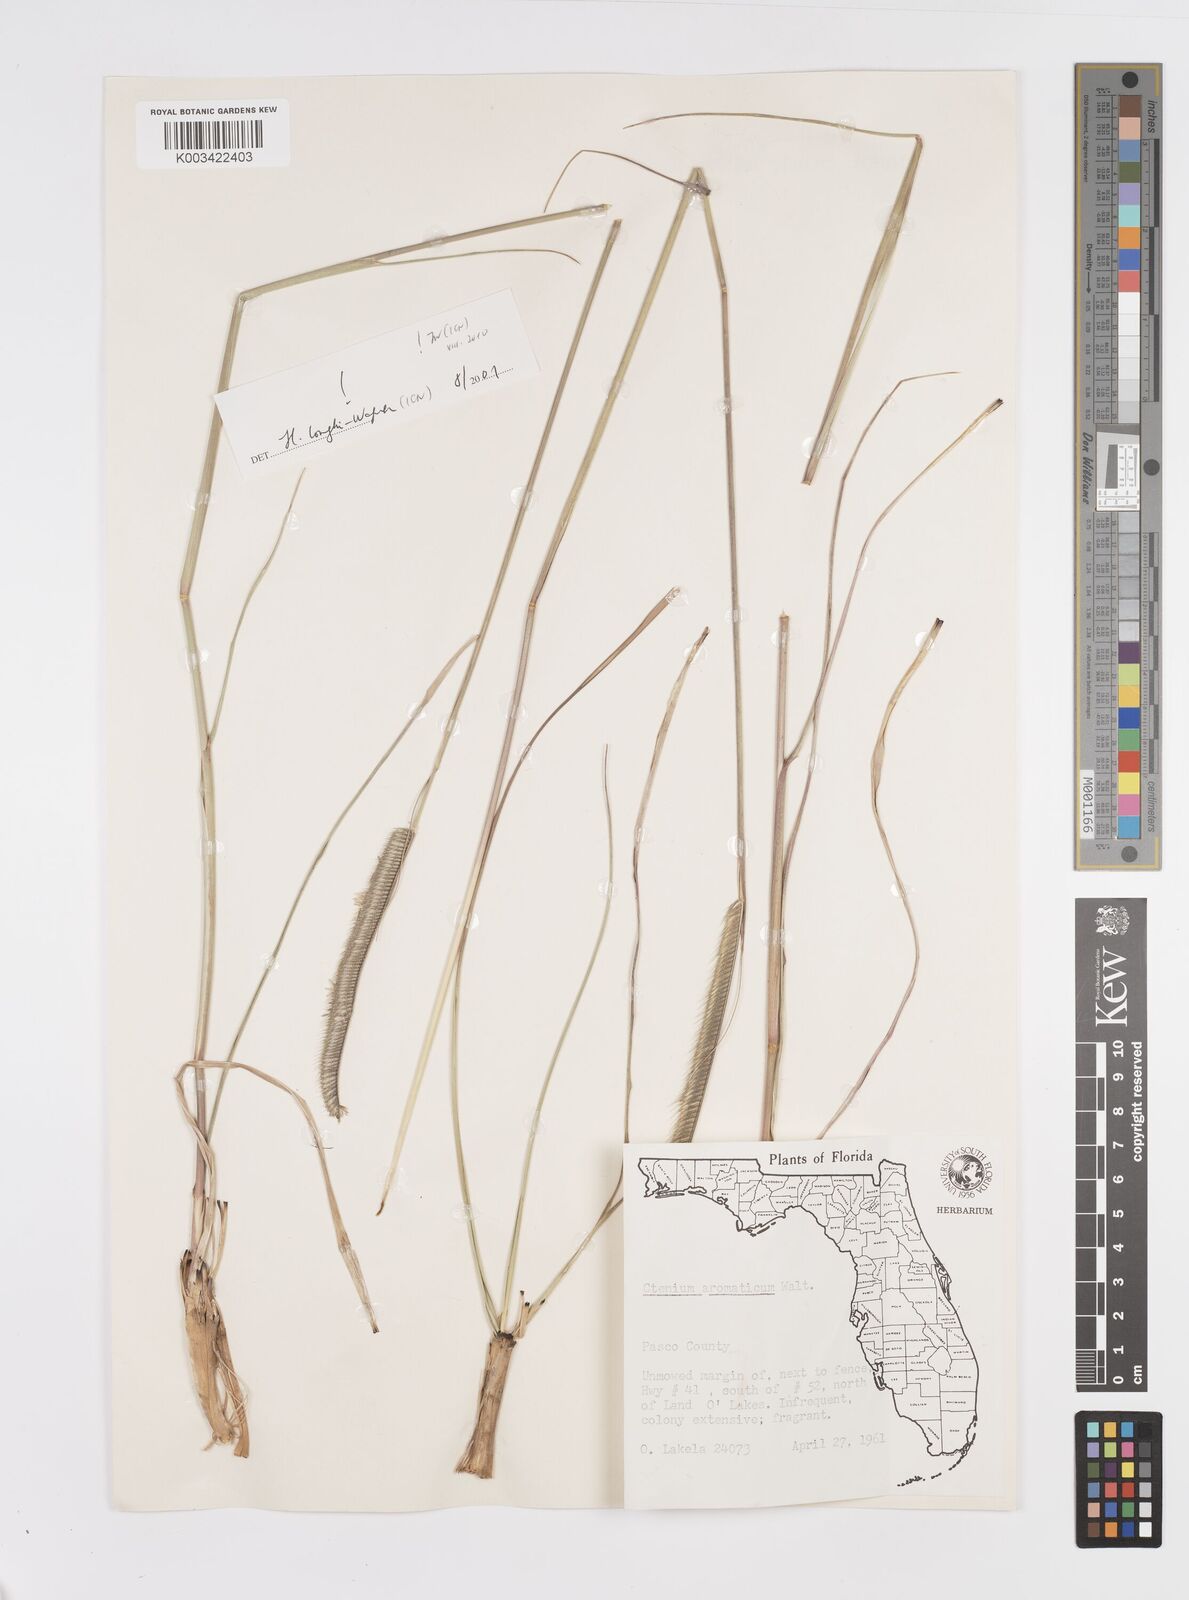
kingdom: Plantae
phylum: Tracheophyta
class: Liliopsida
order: Poales
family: Poaceae
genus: Ctenium
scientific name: Ctenium aromaticum
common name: Toothache grass
